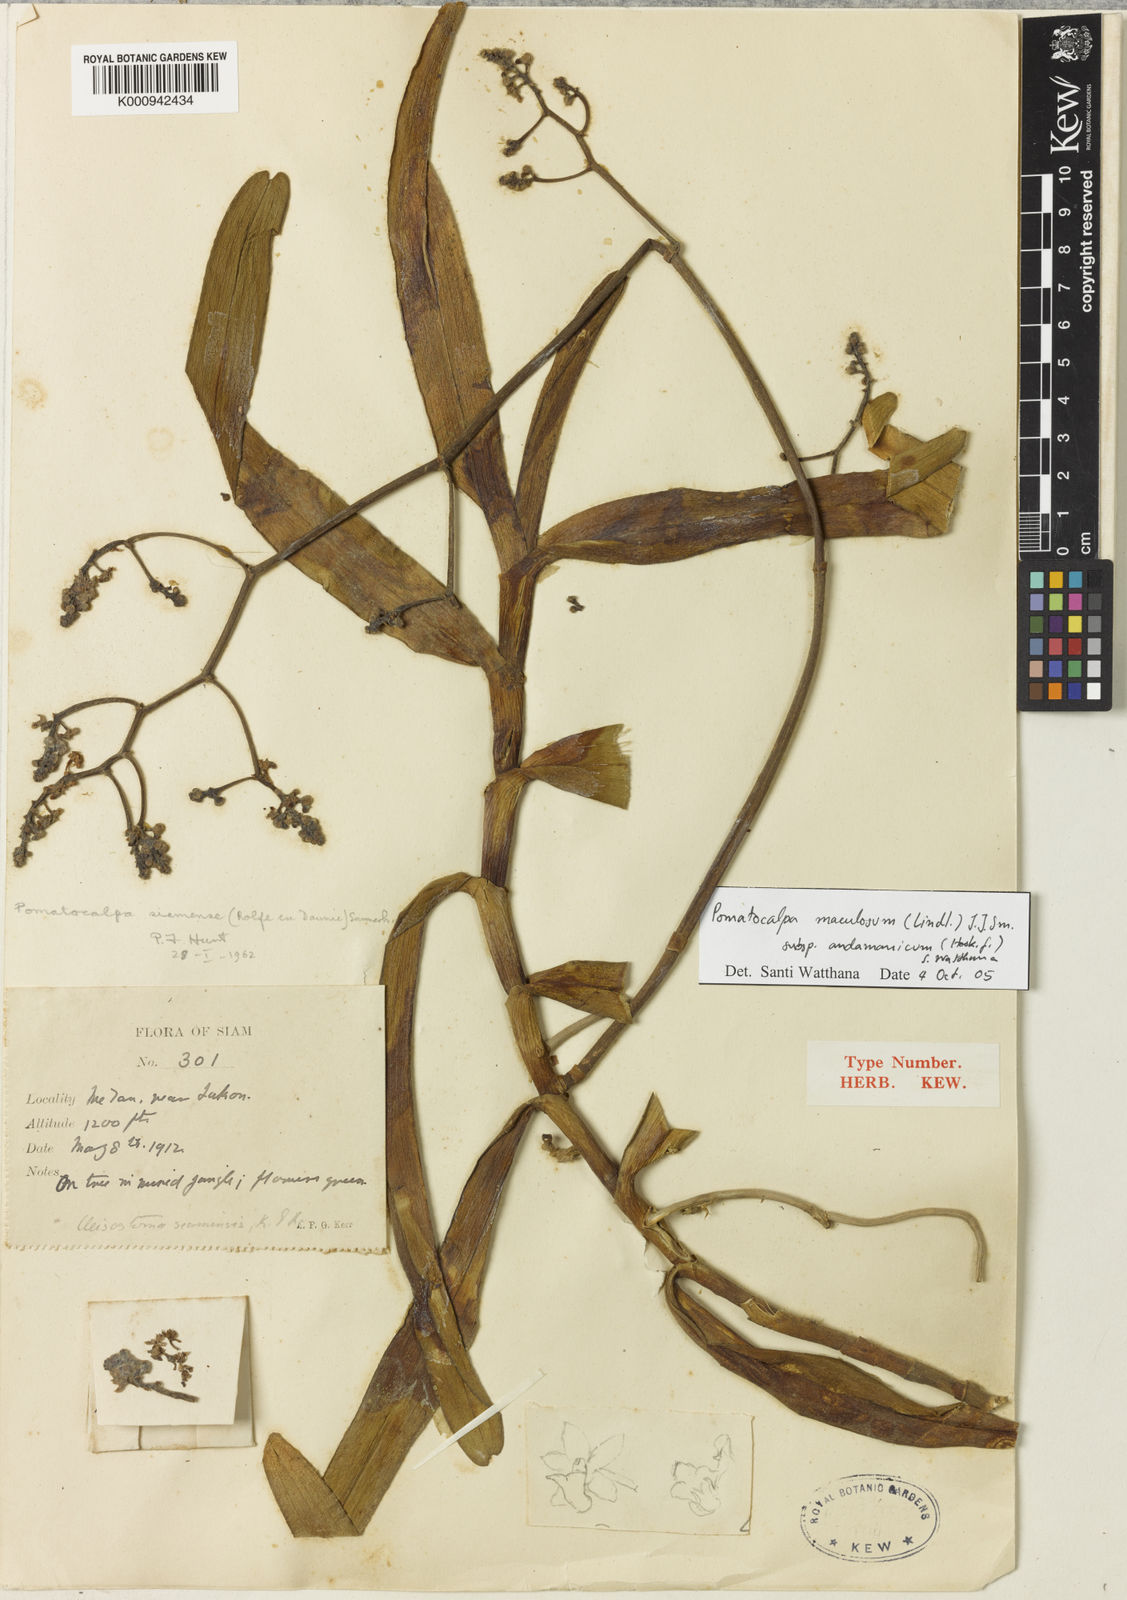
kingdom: Plantae
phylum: Tracheophyta
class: Liliopsida
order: Asparagales
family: Orchidaceae
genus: Pomatocalpa
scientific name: Pomatocalpa maculosum
